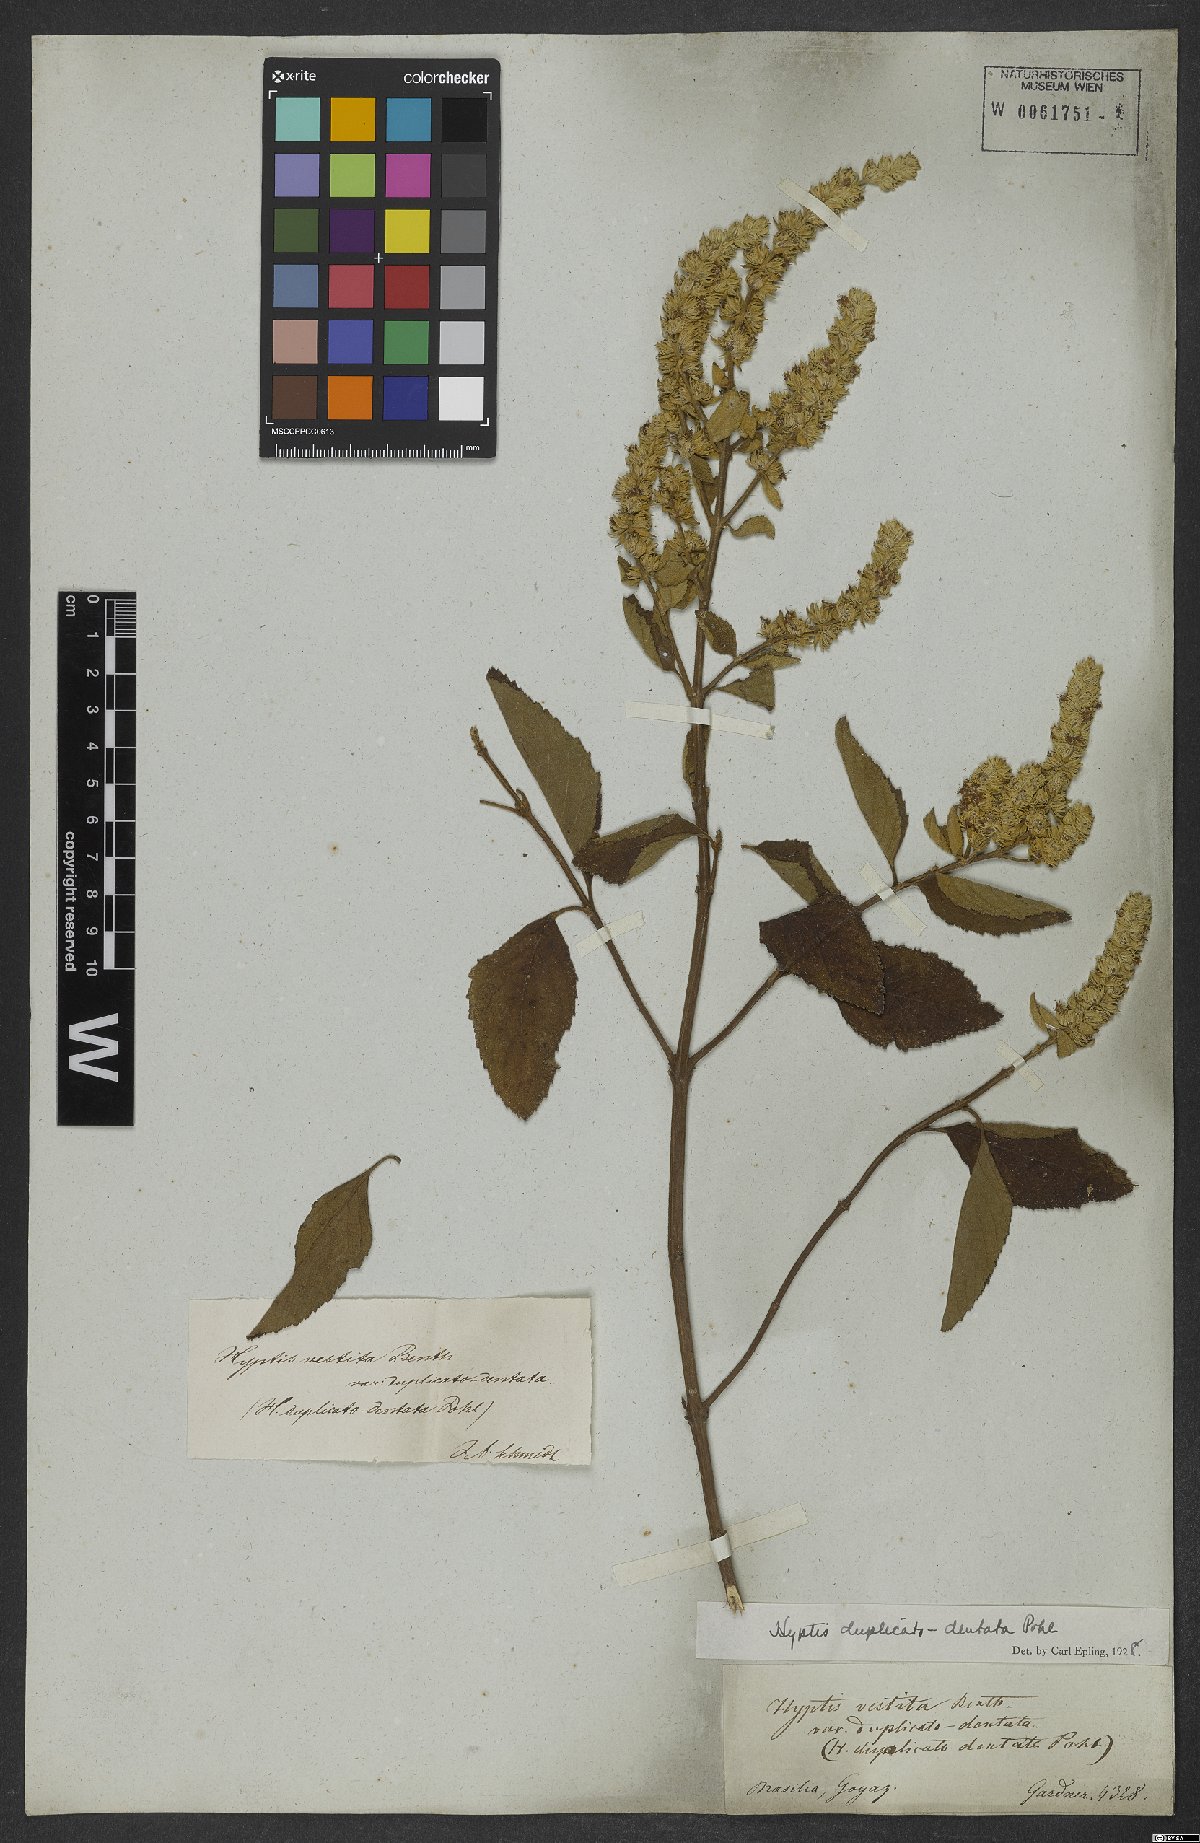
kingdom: Plantae
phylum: Tracheophyta
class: Magnoliopsida
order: Lamiales
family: Lamiaceae
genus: Cantinoa
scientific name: Cantinoa duplicatodentata
